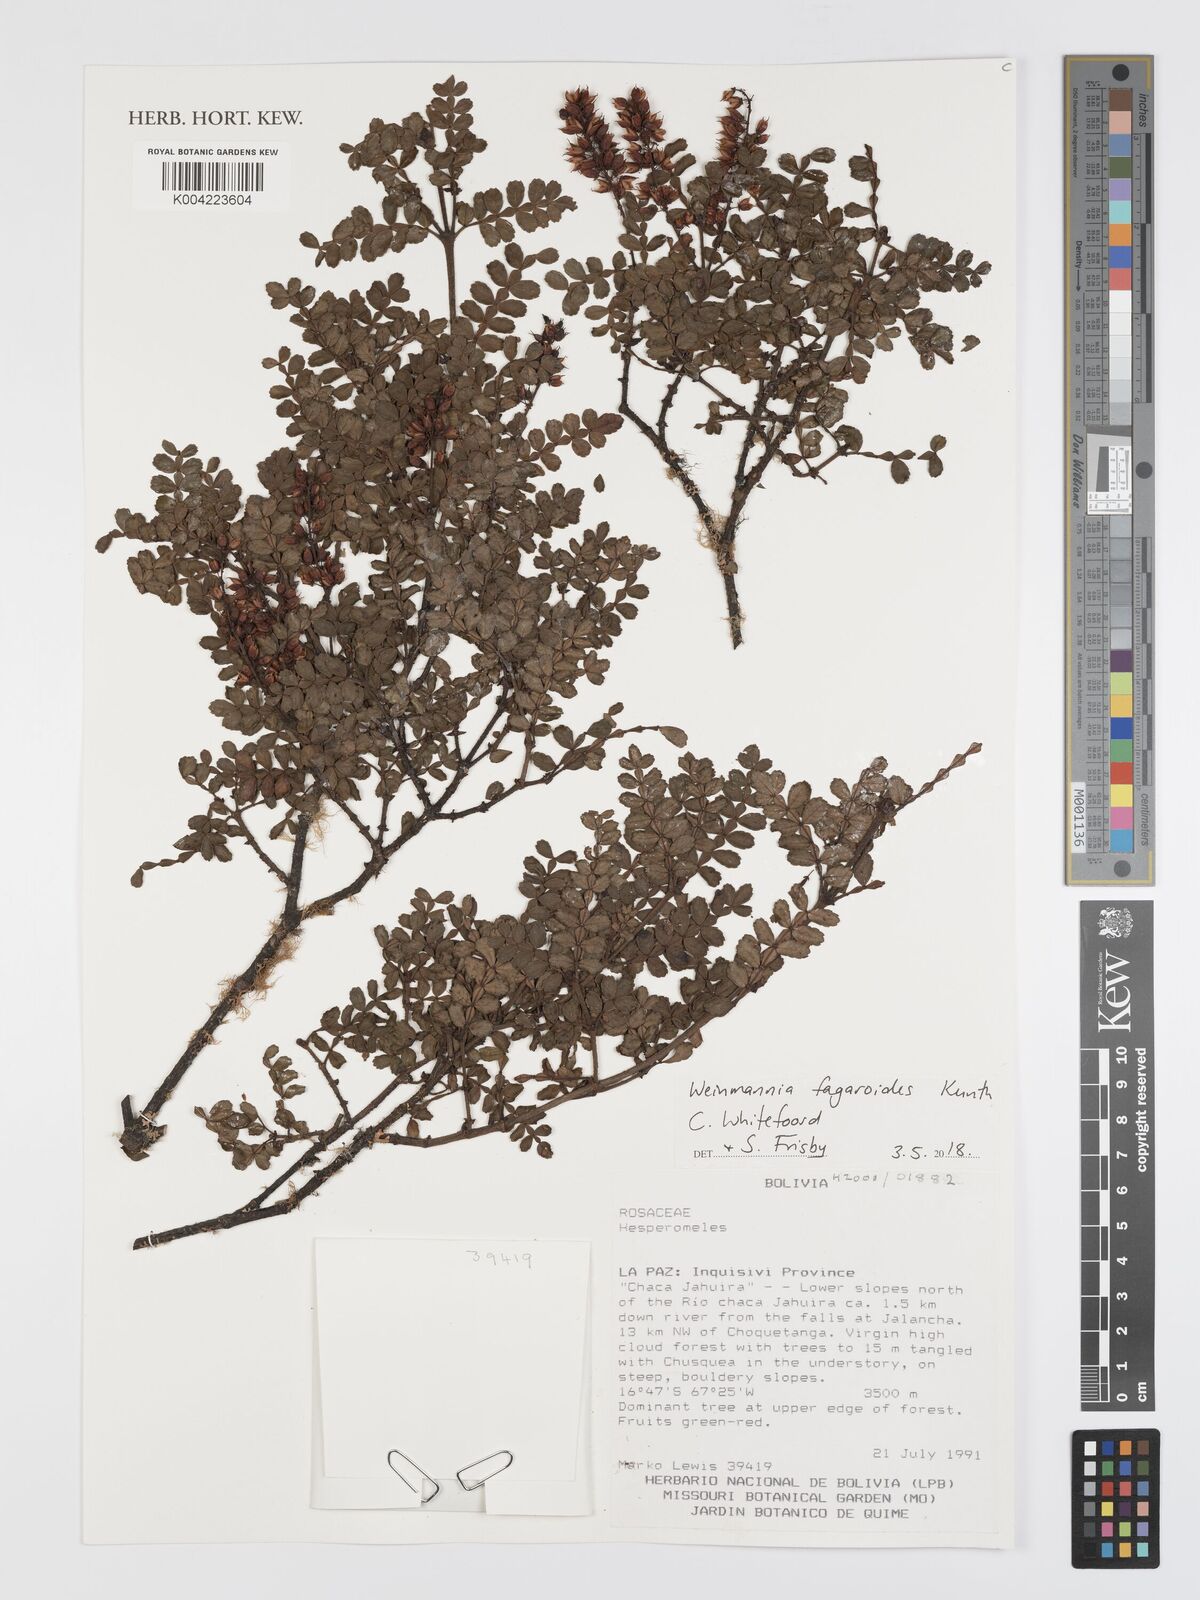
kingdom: Plantae
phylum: Tracheophyta
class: Magnoliopsida
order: Oxalidales
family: Cunoniaceae
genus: Weinmannia
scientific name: Weinmannia fagaroides
